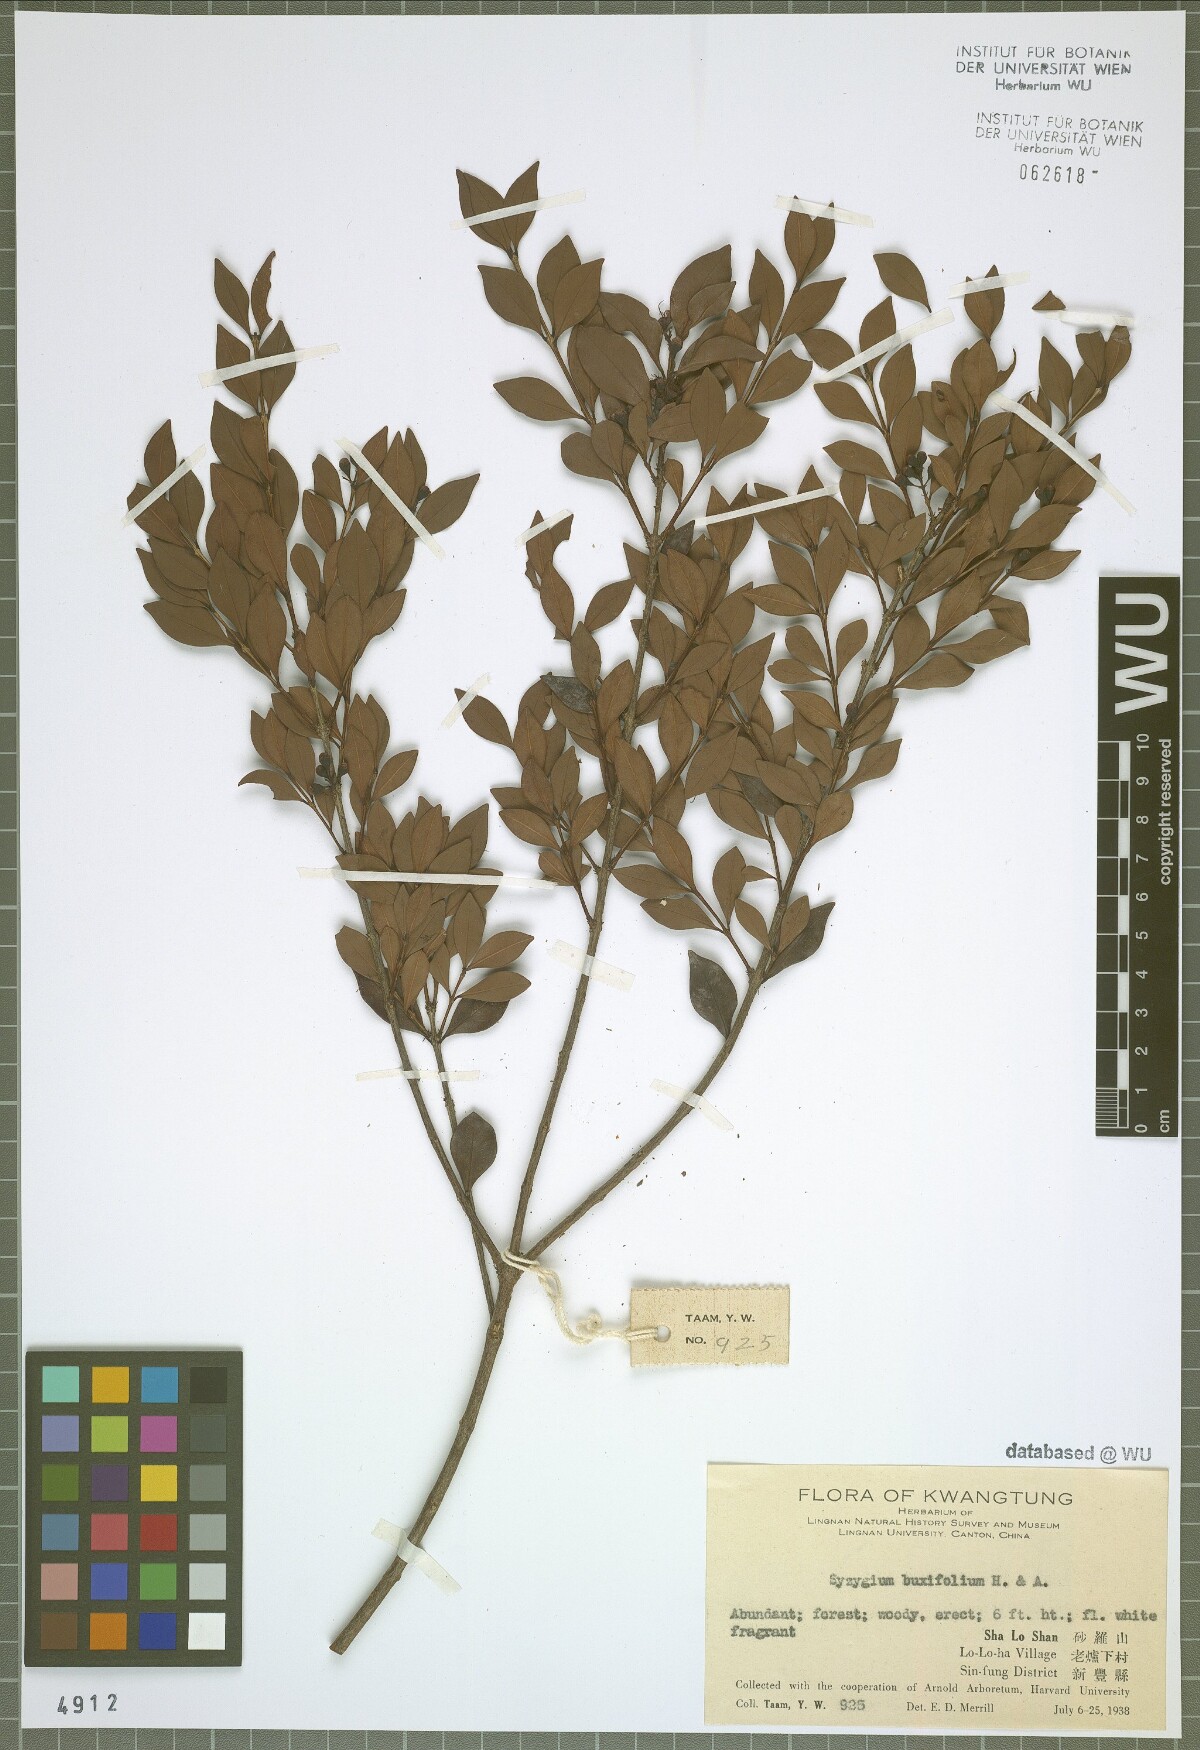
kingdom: Plantae
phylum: Tracheophyta
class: Magnoliopsida
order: Myrtales
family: Myrtaceae
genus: Syzygium
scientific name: Syzygium buxifolium
